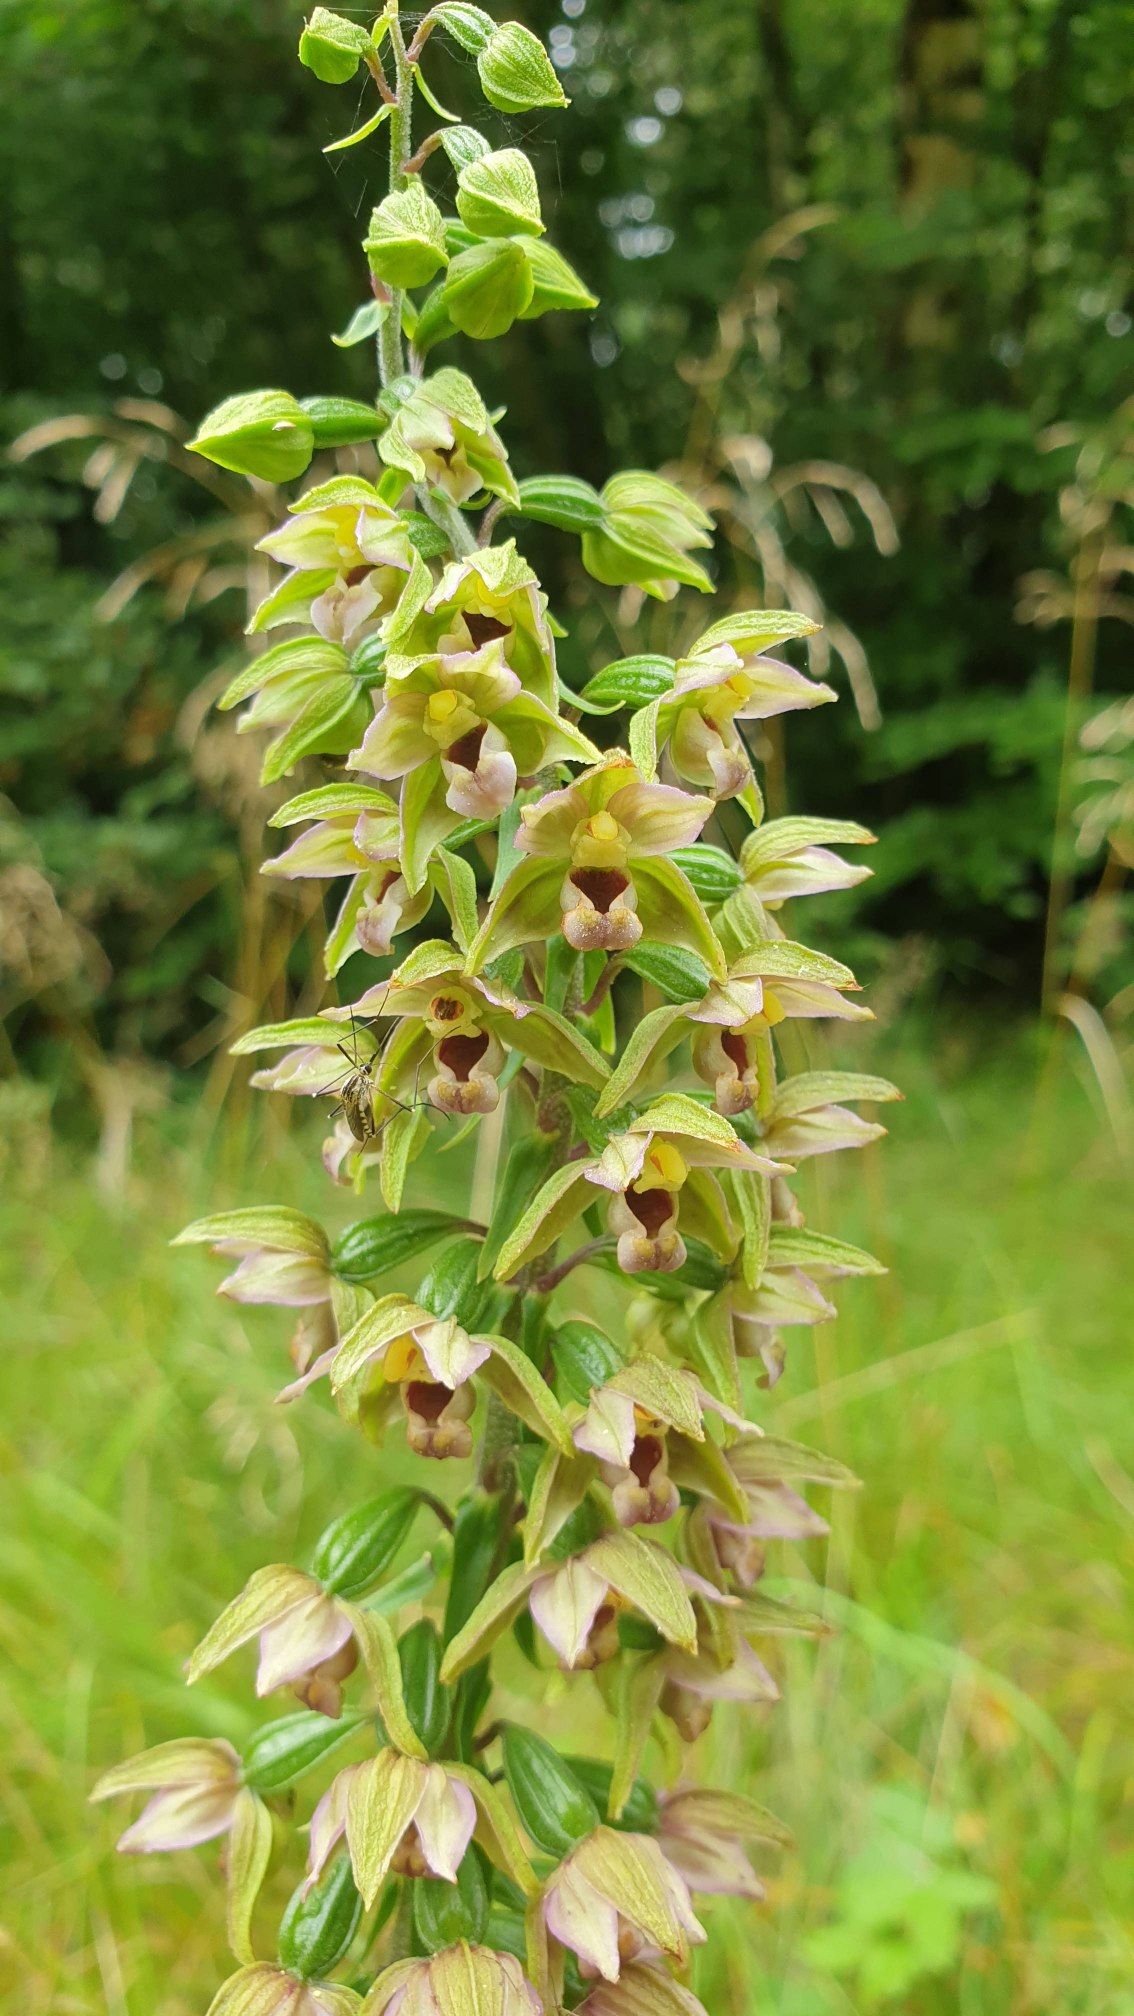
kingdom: Plantae
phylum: Tracheophyta
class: Liliopsida
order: Asparagales
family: Orchidaceae
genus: Epipactis
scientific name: Epipactis helleborine
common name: Skov-hullæbe (underart)
